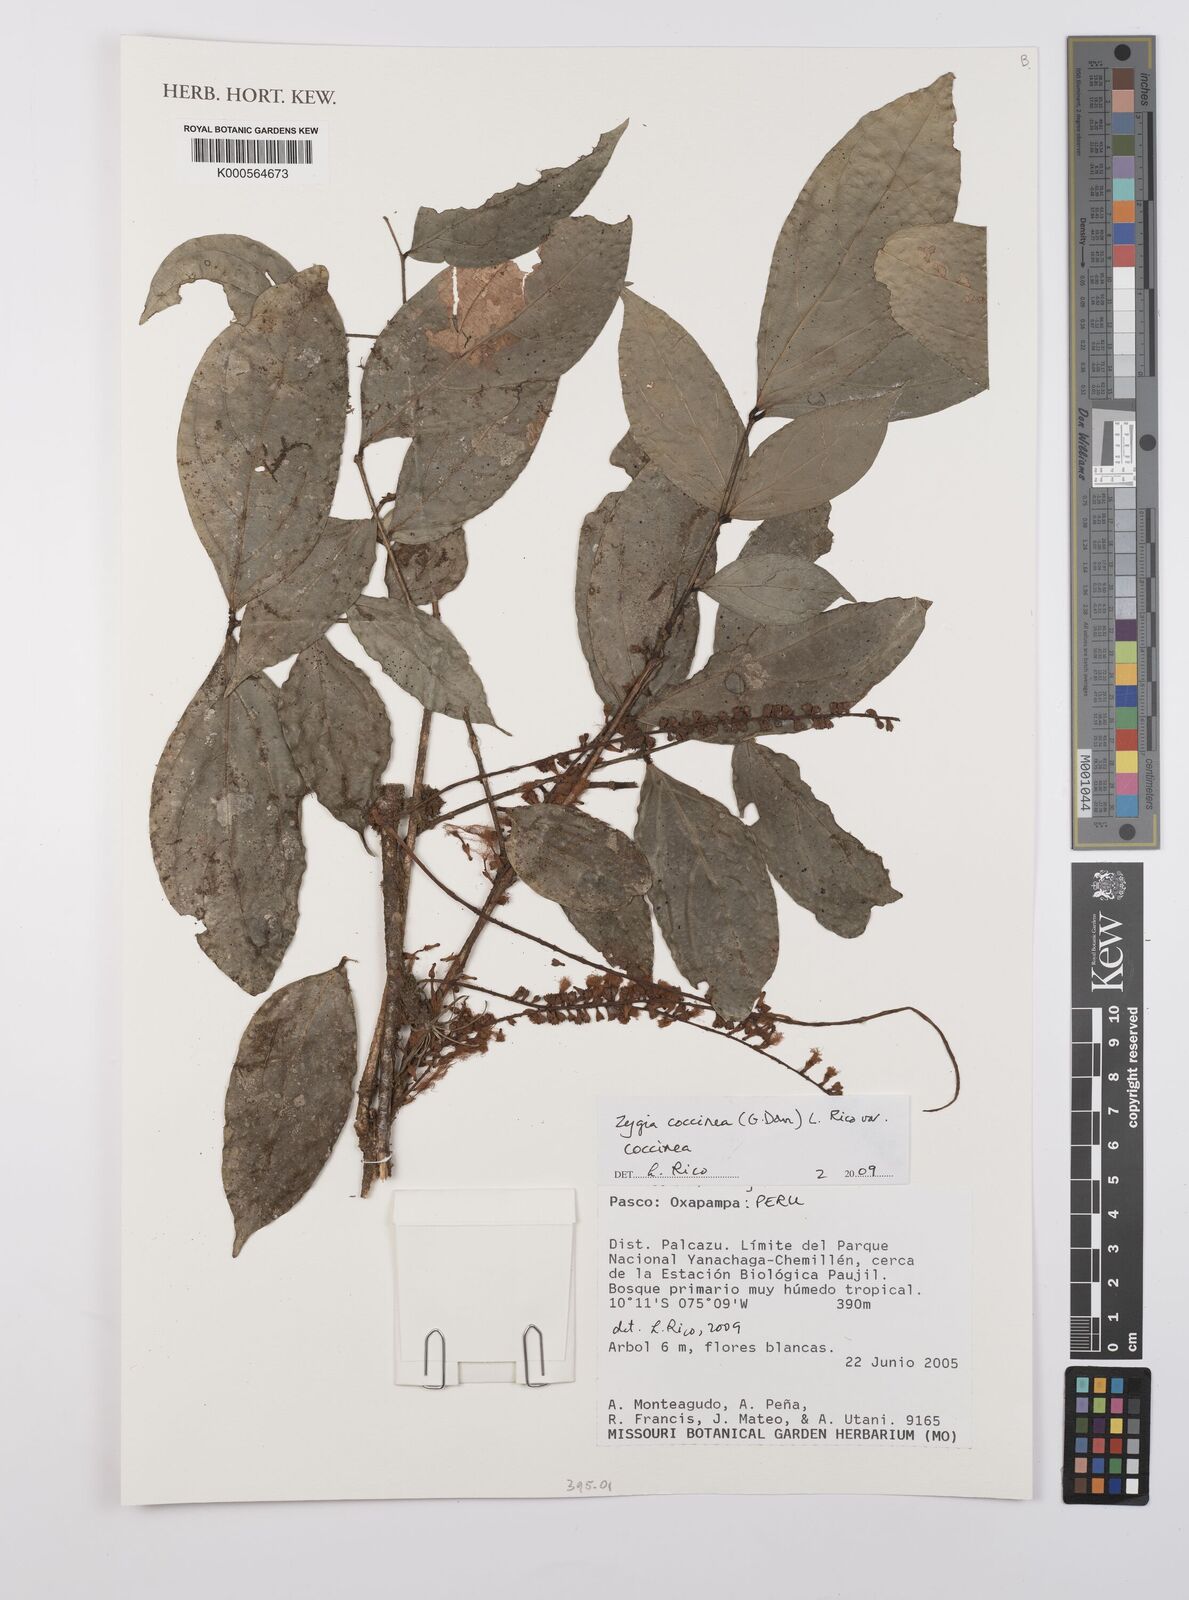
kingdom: Plantae
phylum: Tracheophyta
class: Magnoliopsida
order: Fabales
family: Fabaceae
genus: Zygia
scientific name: Zygia coccinea
